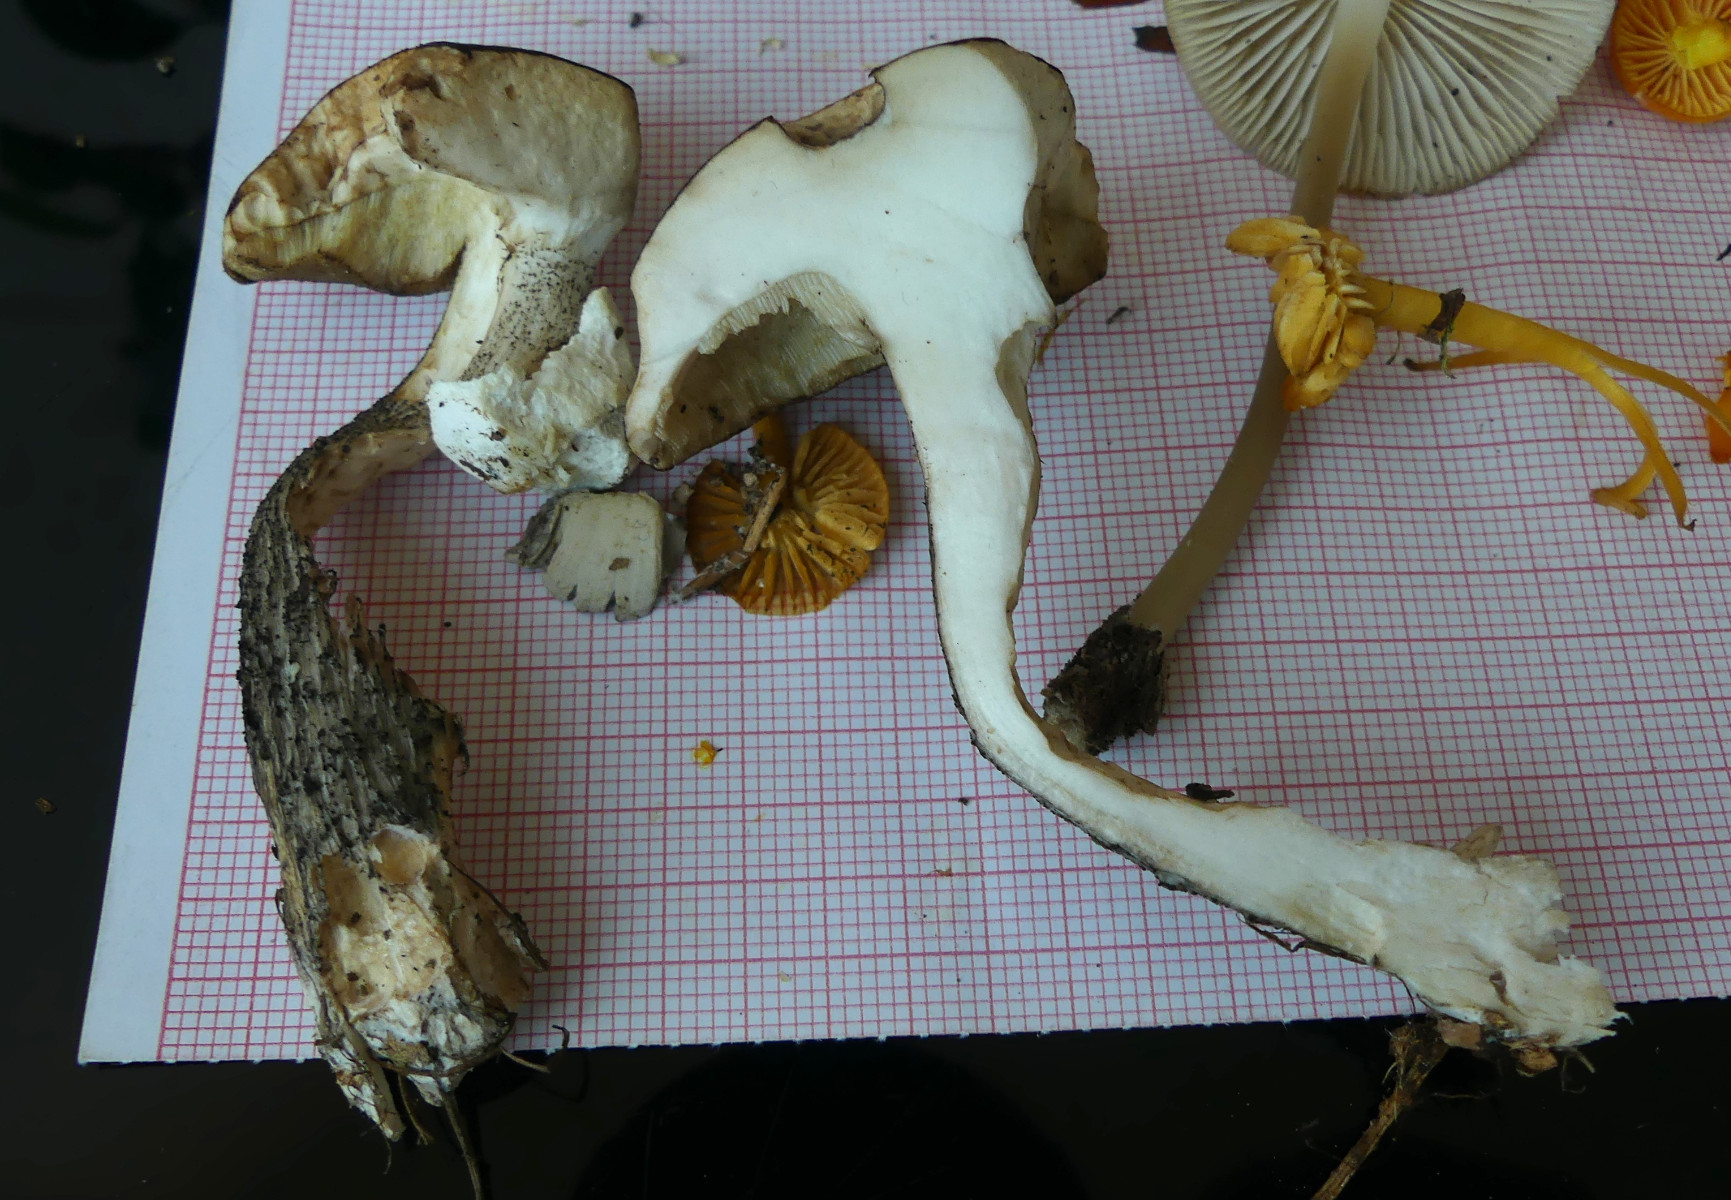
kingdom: Fungi
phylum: Basidiomycota
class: Agaricomycetes
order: Boletales
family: Boletaceae
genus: Leccinum
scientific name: Leccinum melaneum
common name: mørk skælrørhat
